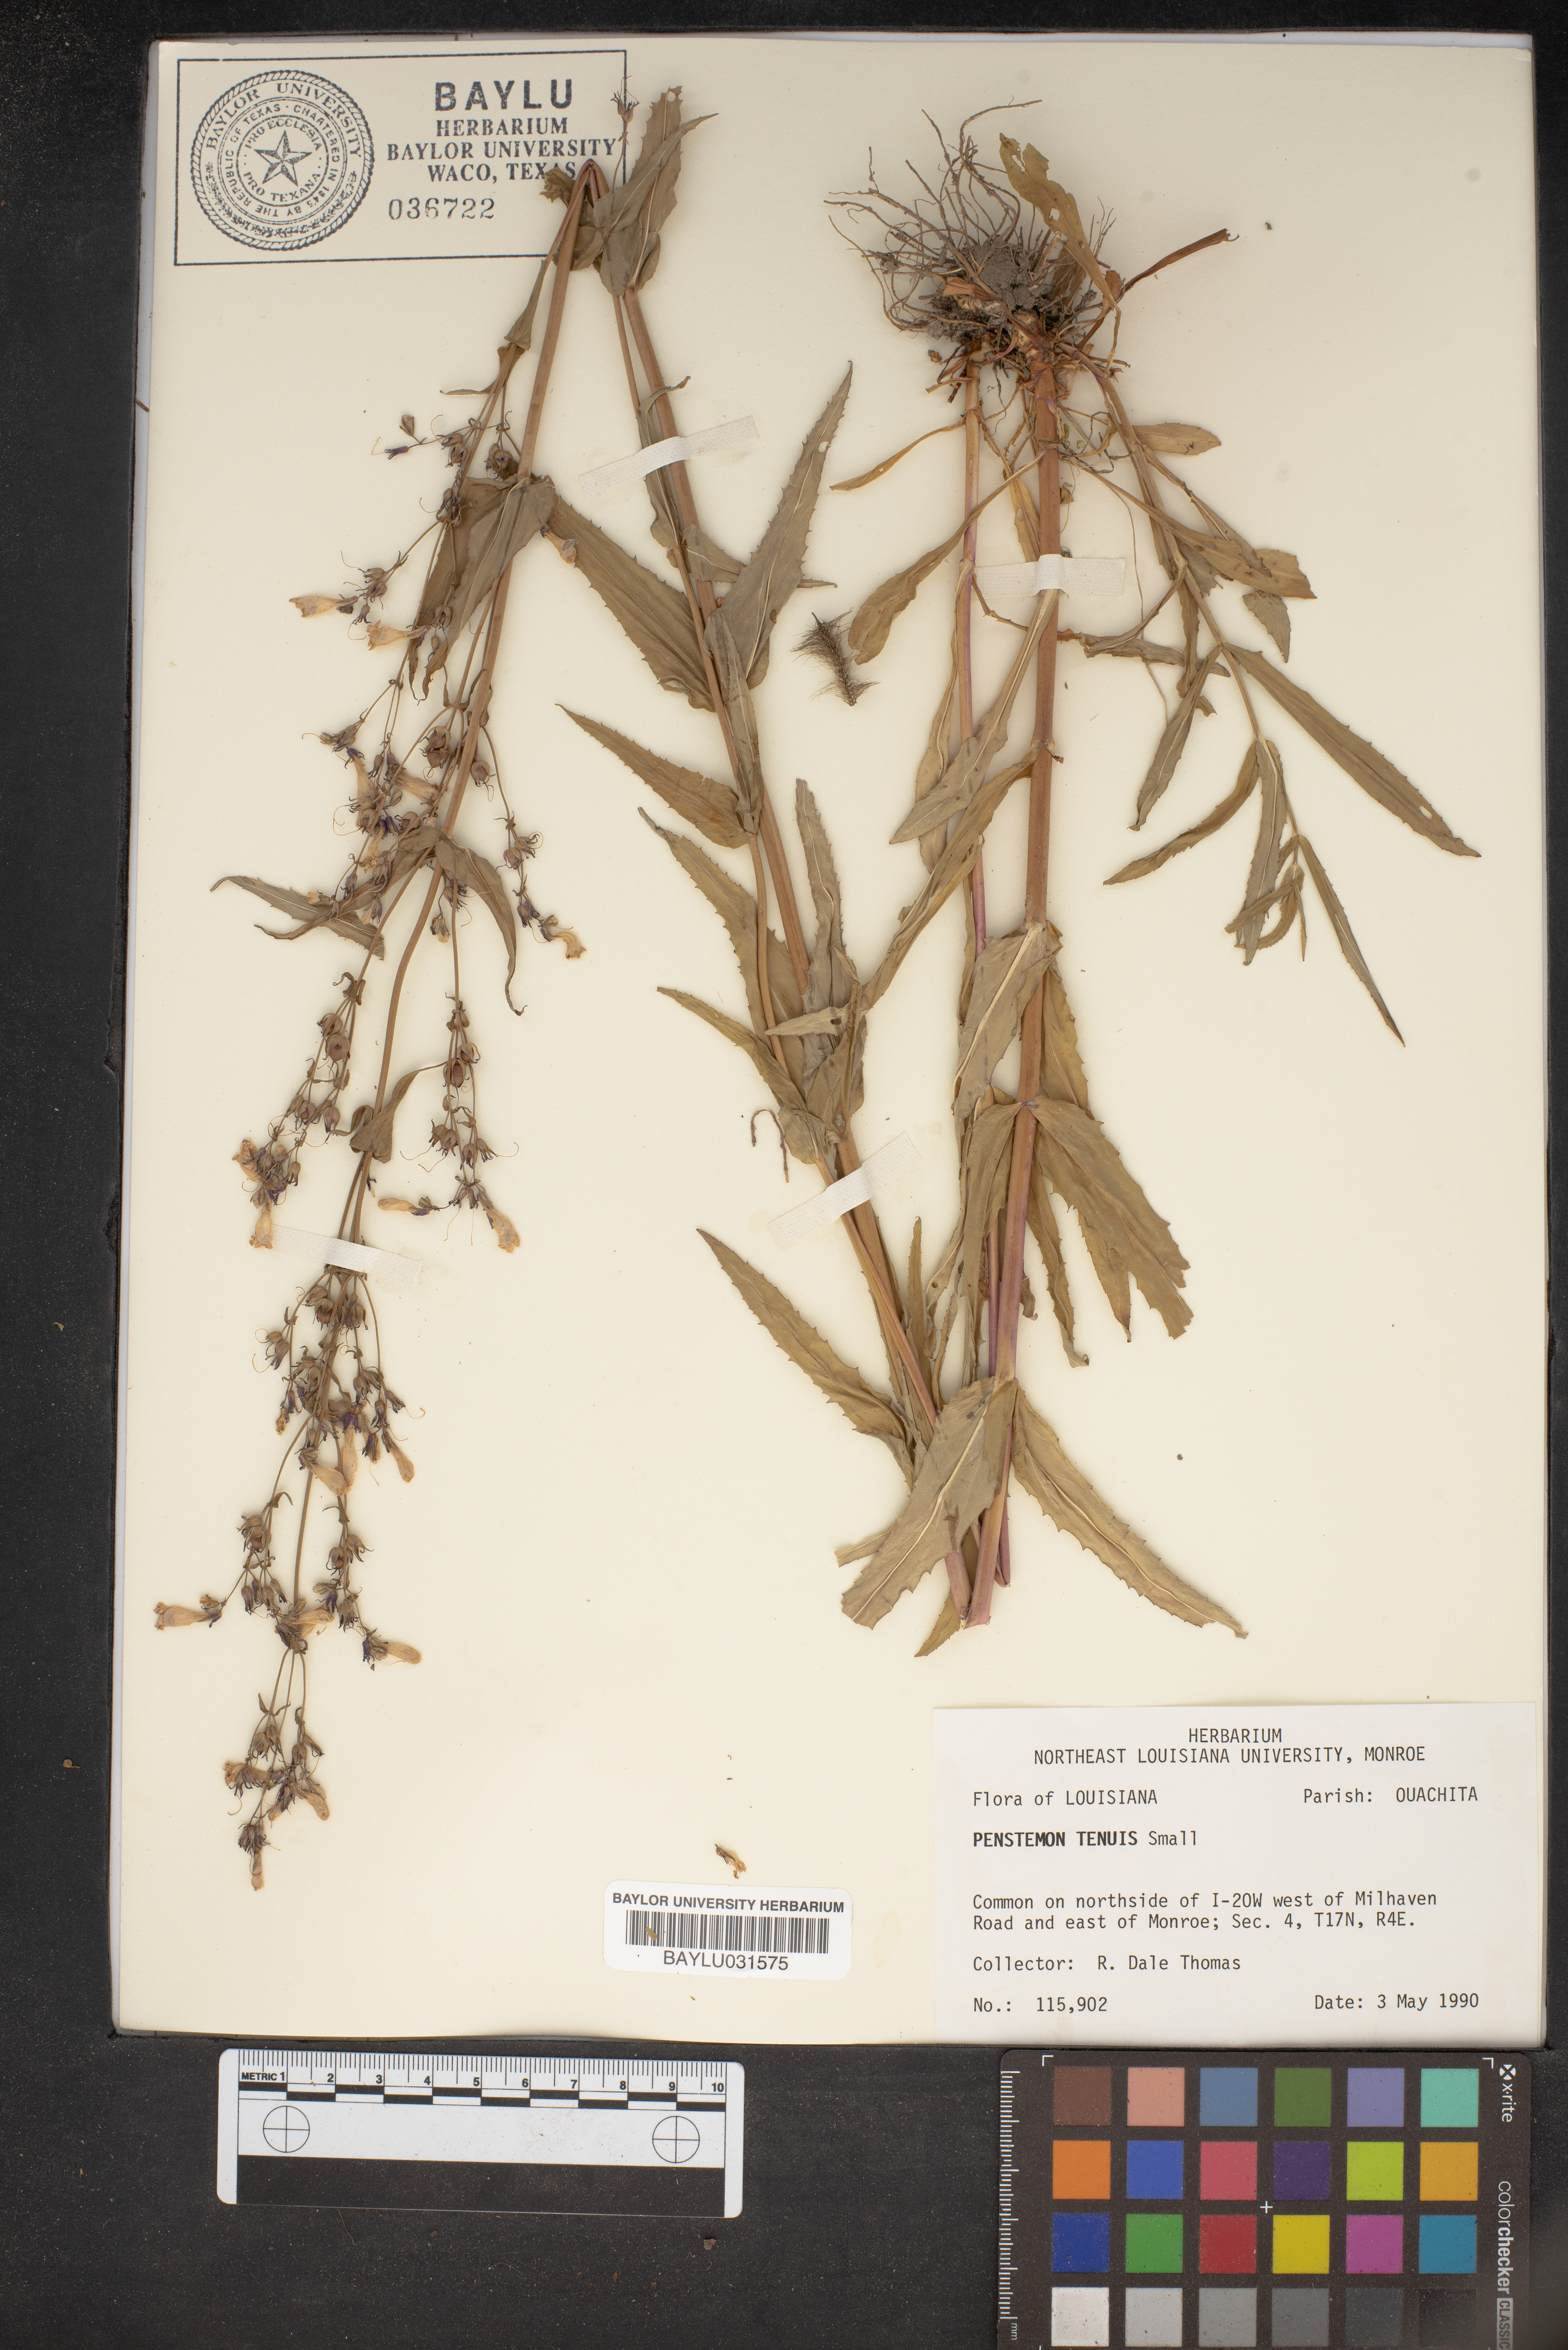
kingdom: Plantae
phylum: Tracheophyta
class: Magnoliopsida
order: Lamiales
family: Plantaginaceae
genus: Penstemon
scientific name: Penstemon tenuis
